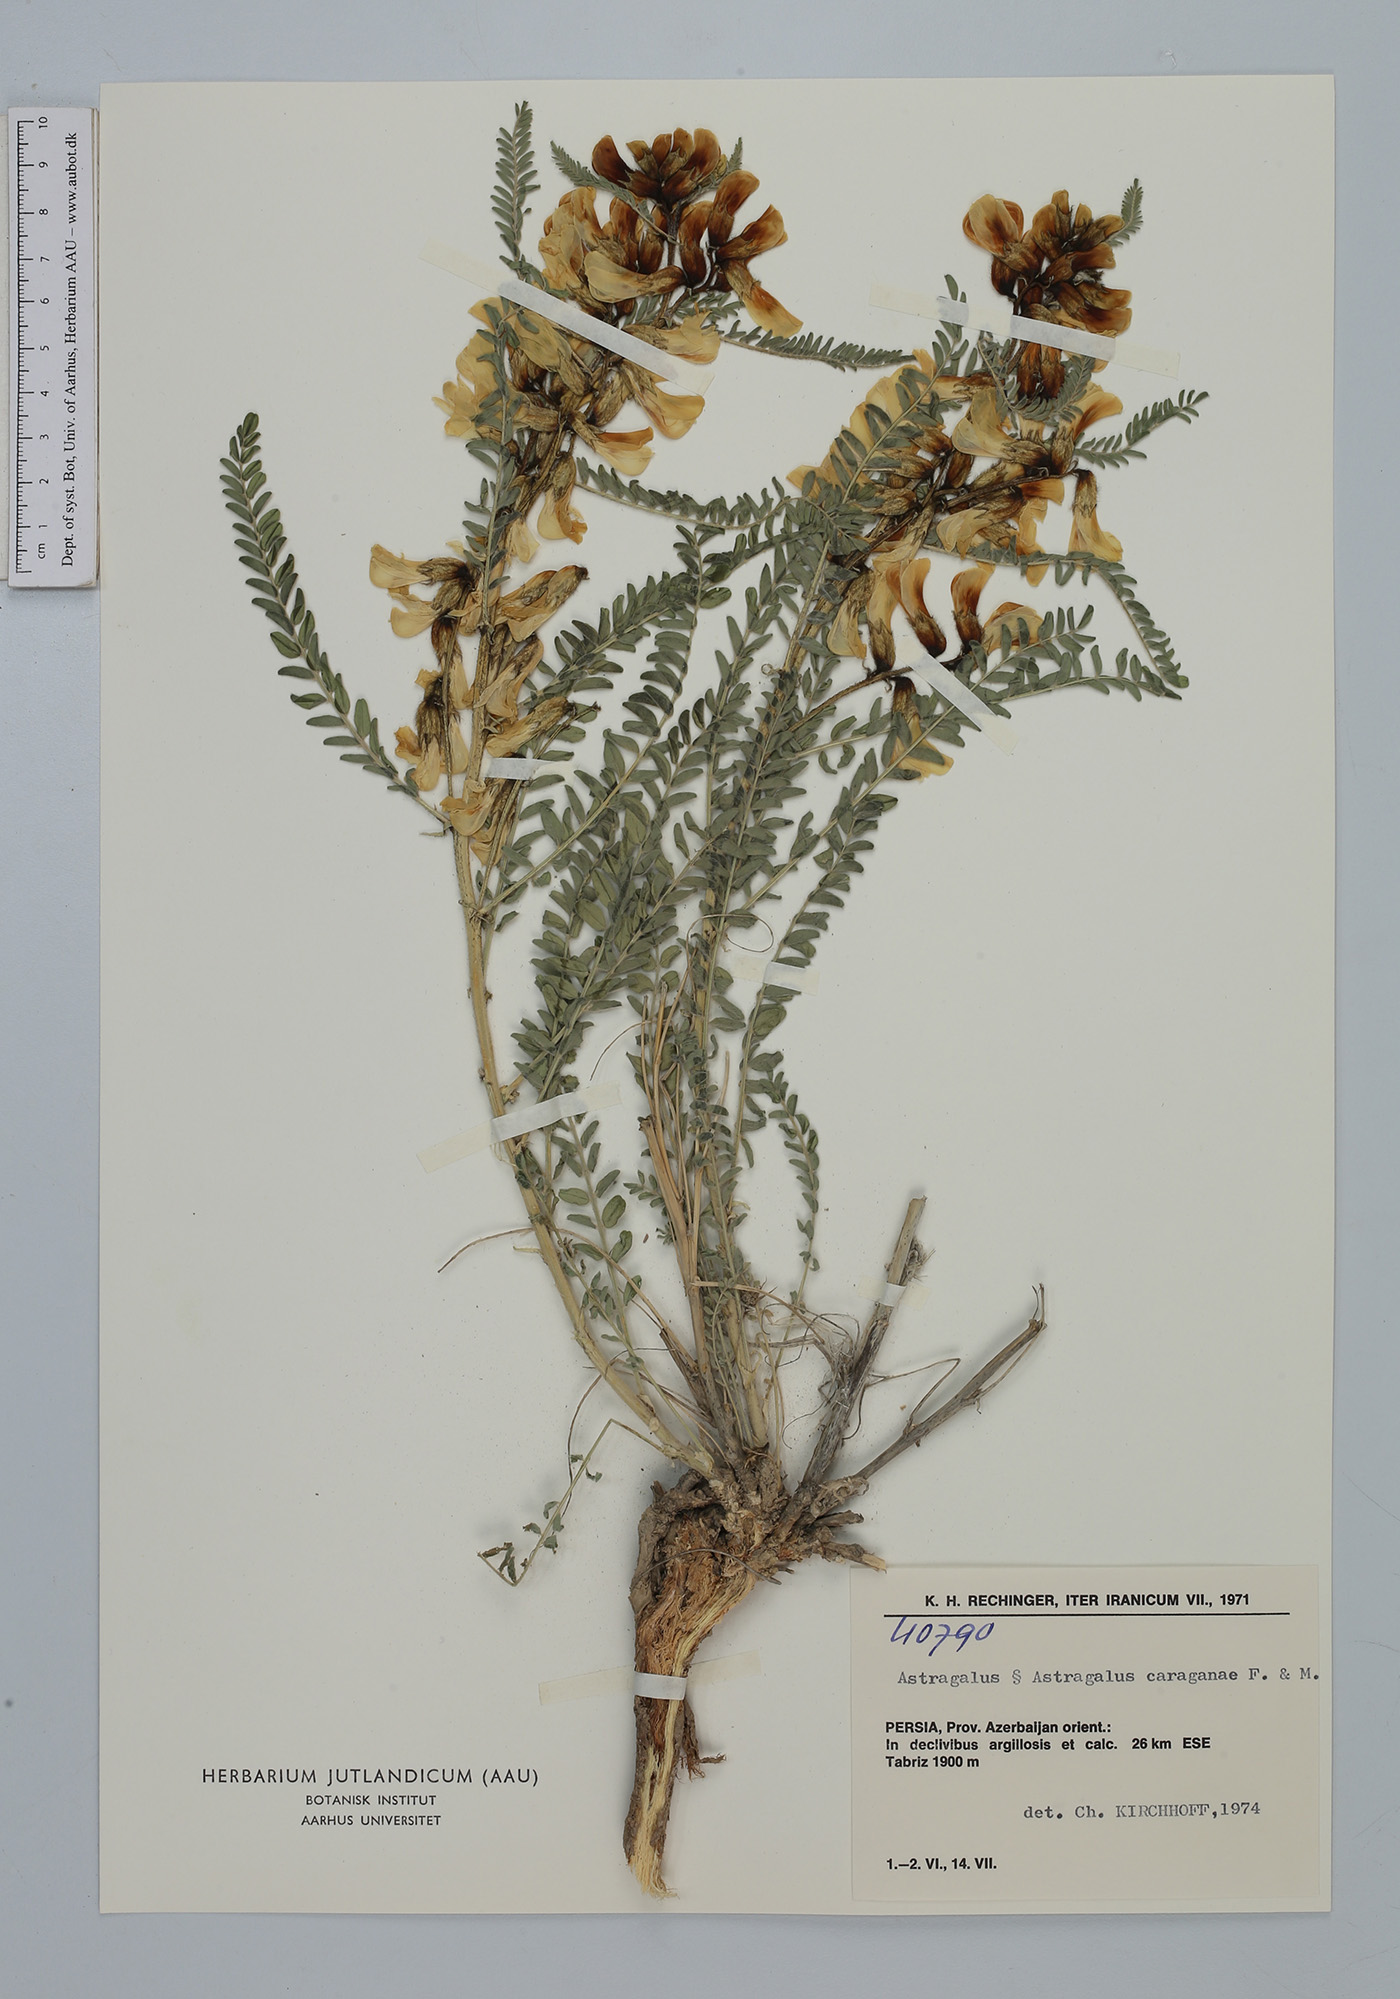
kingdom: Plantae
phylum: Tracheophyta
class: Magnoliopsida
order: Fabales
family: Fabaceae
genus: Astragalus
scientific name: Astragalus caraganae
